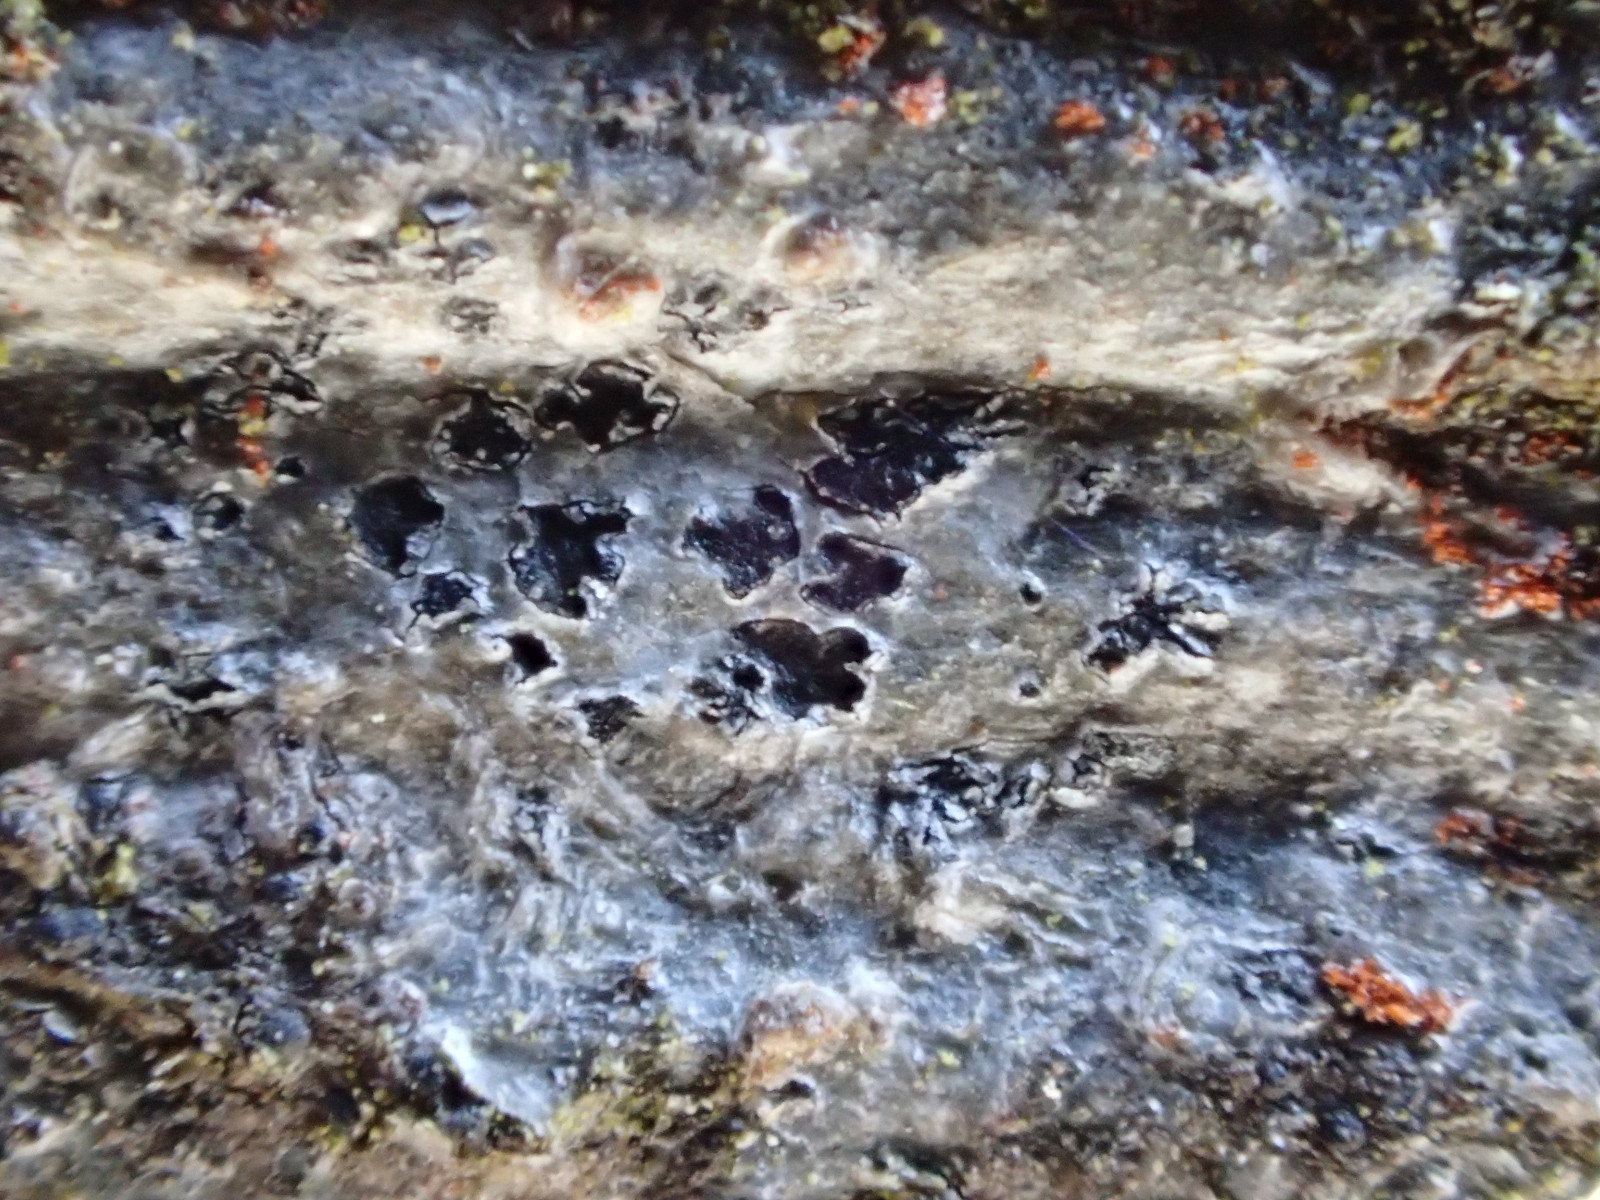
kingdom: Fungi
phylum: Ascomycota
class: Arthoniomycetes
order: Arthoniales
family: Arthoniaceae
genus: Arthonia
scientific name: Arthonia radiata
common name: stjerne-pletlav
